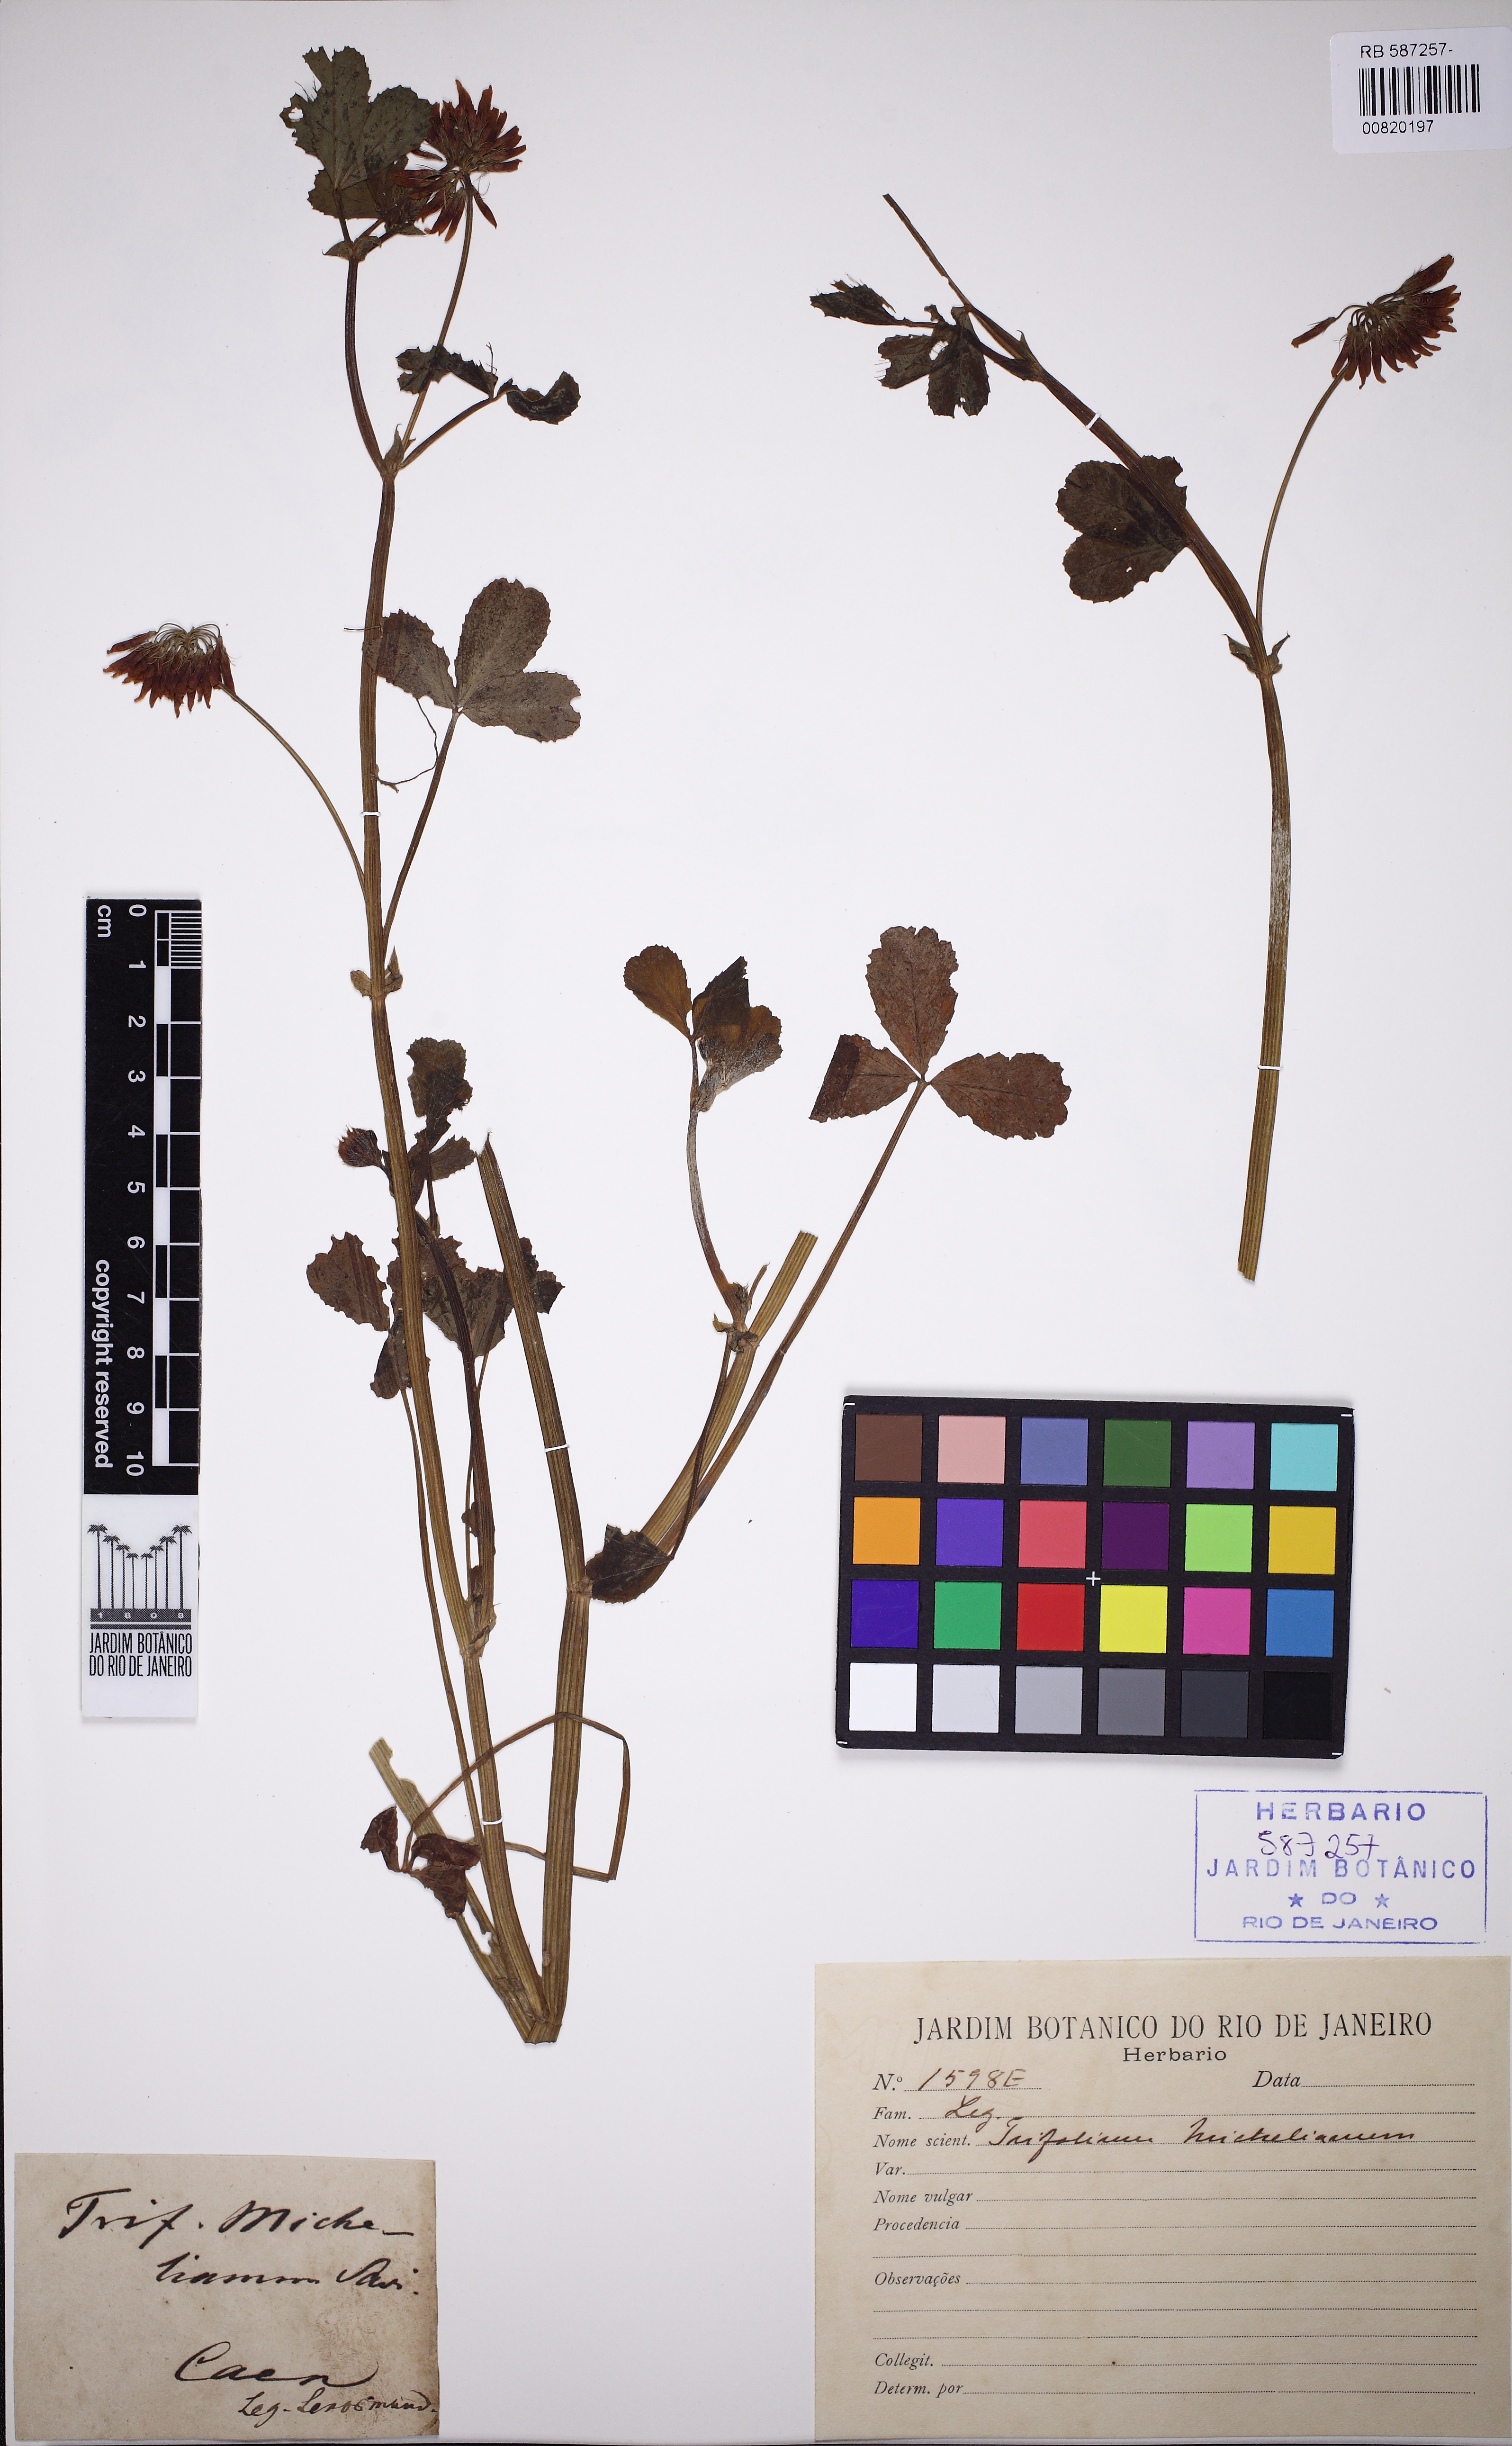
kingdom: Plantae
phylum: Tracheophyta
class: Magnoliopsida
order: Fabales
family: Fabaceae
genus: Trifolium
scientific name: Trifolium michelianum
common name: Bigflower clover
